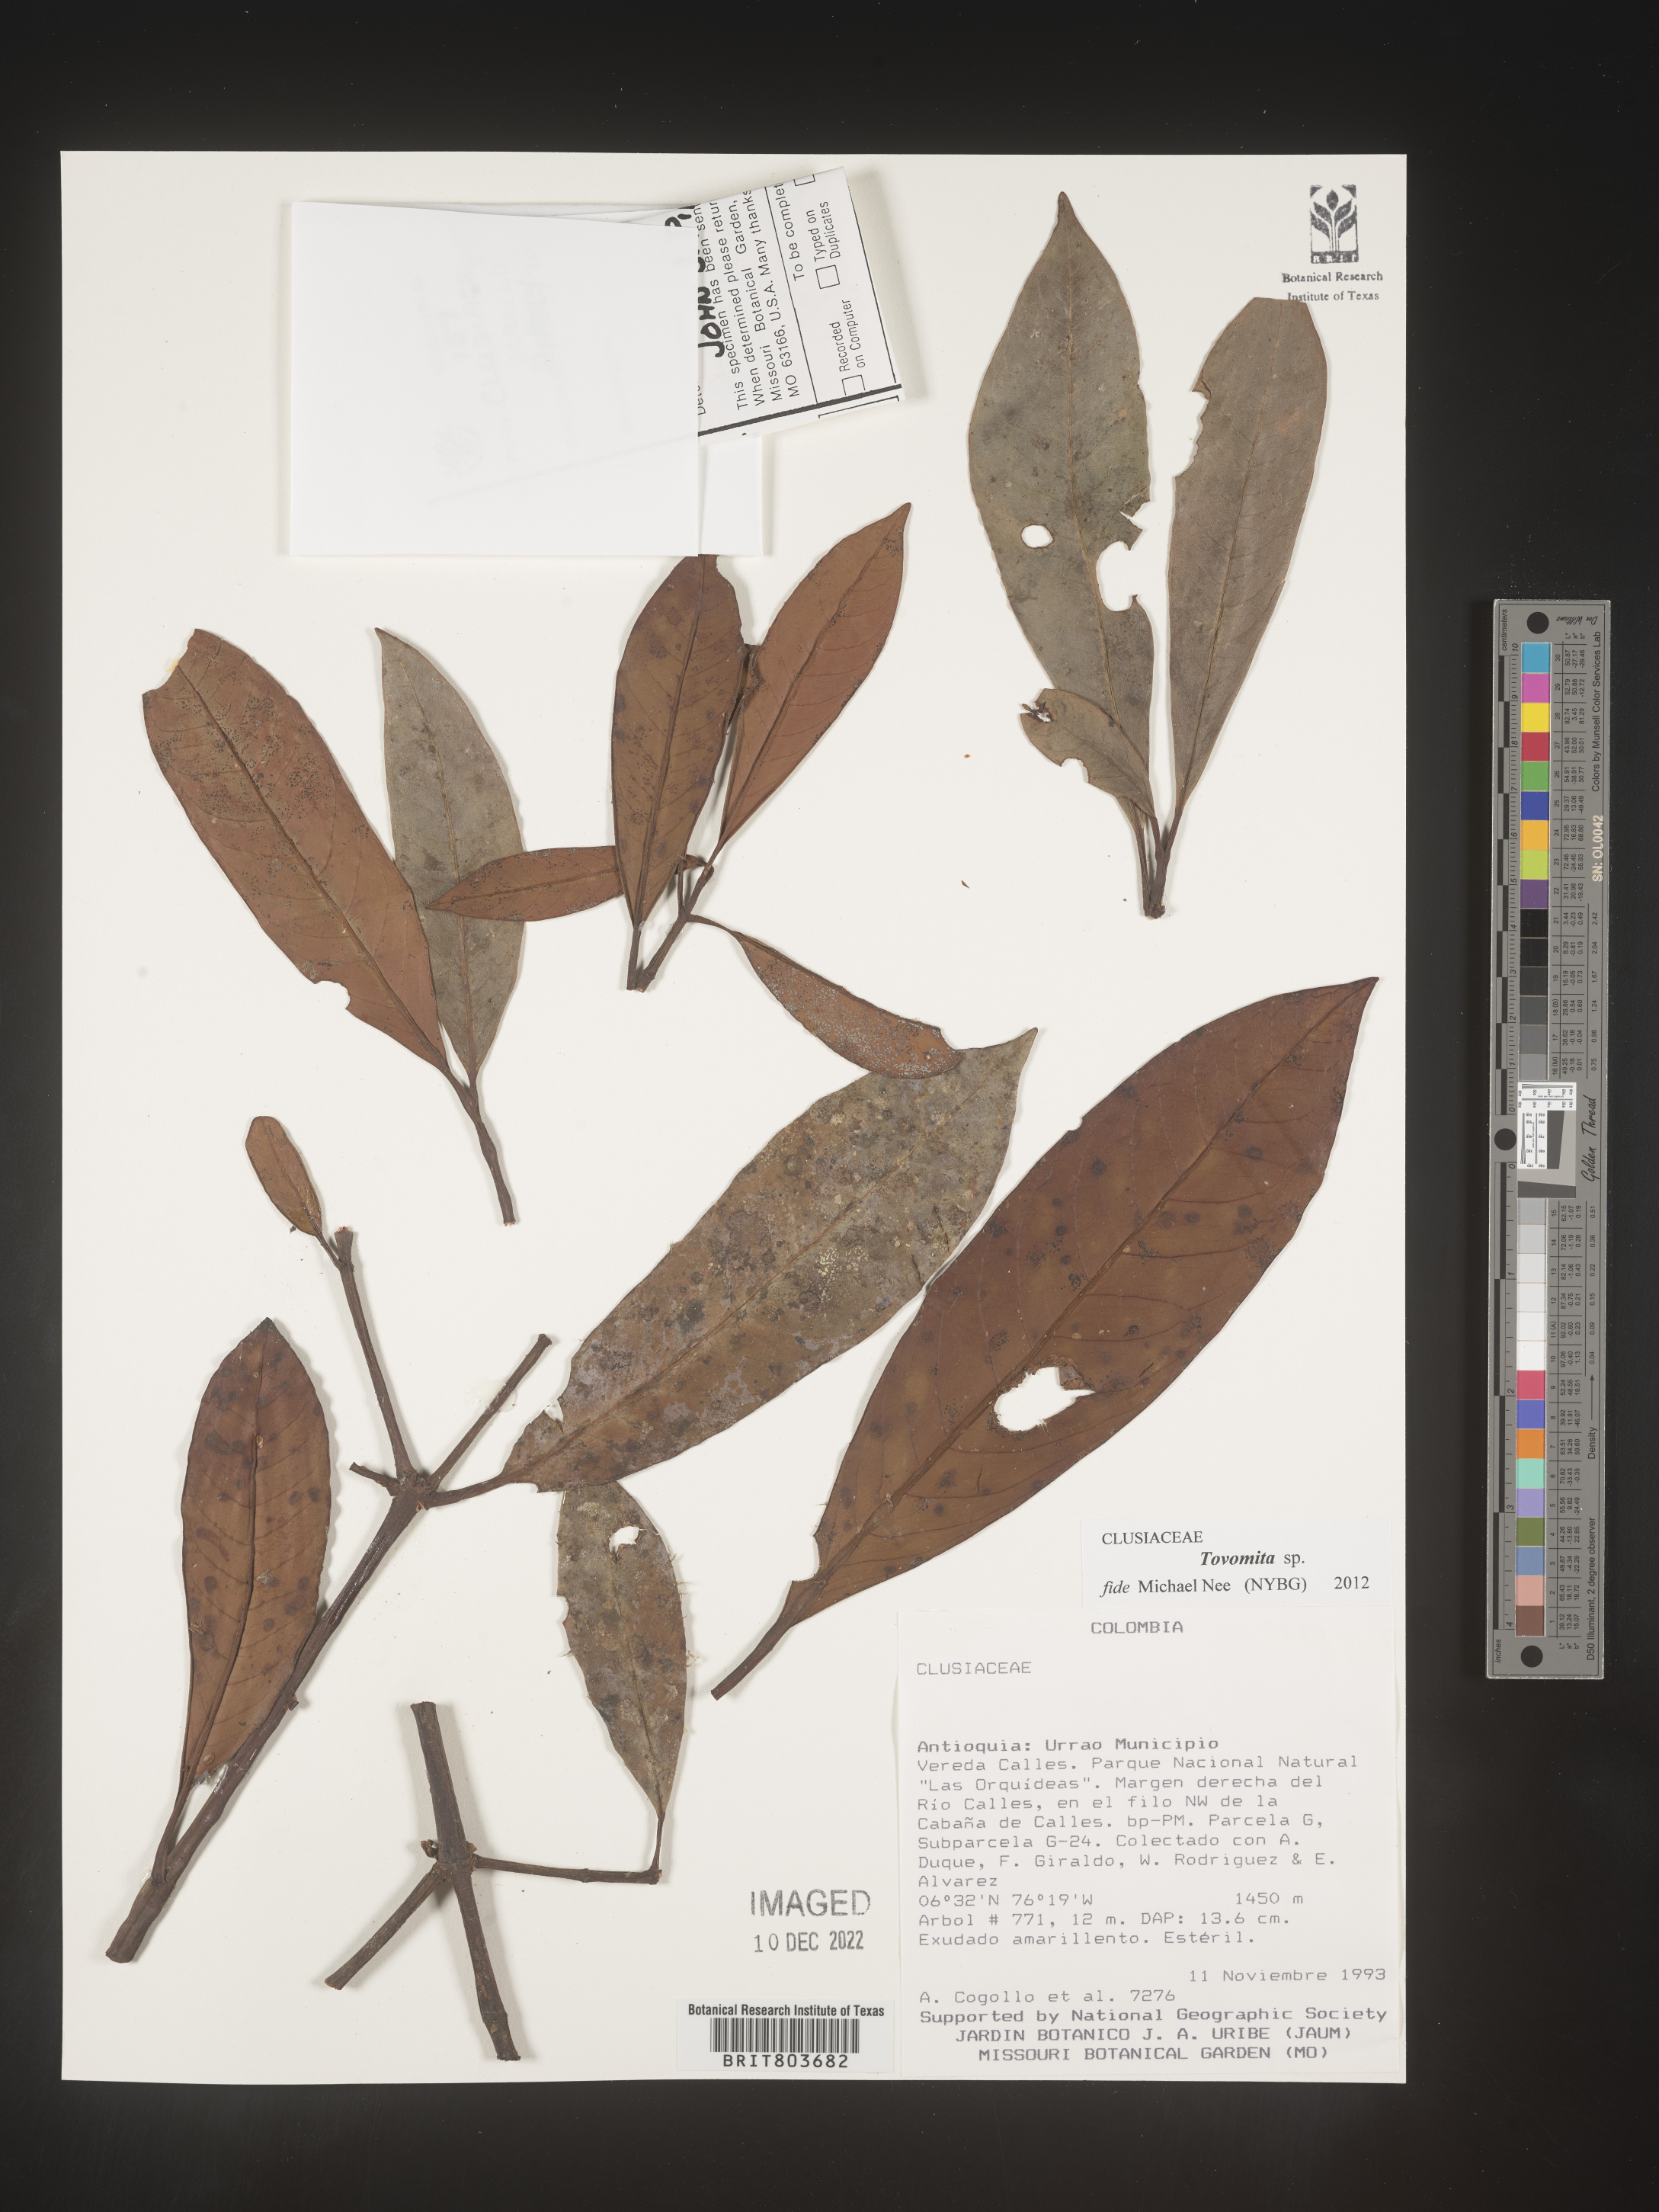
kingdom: Plantae
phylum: Tracheophyta
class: Magnoliopsida
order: Malpighiales
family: Clusiaceae
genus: Tovomita
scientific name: Tovomita
